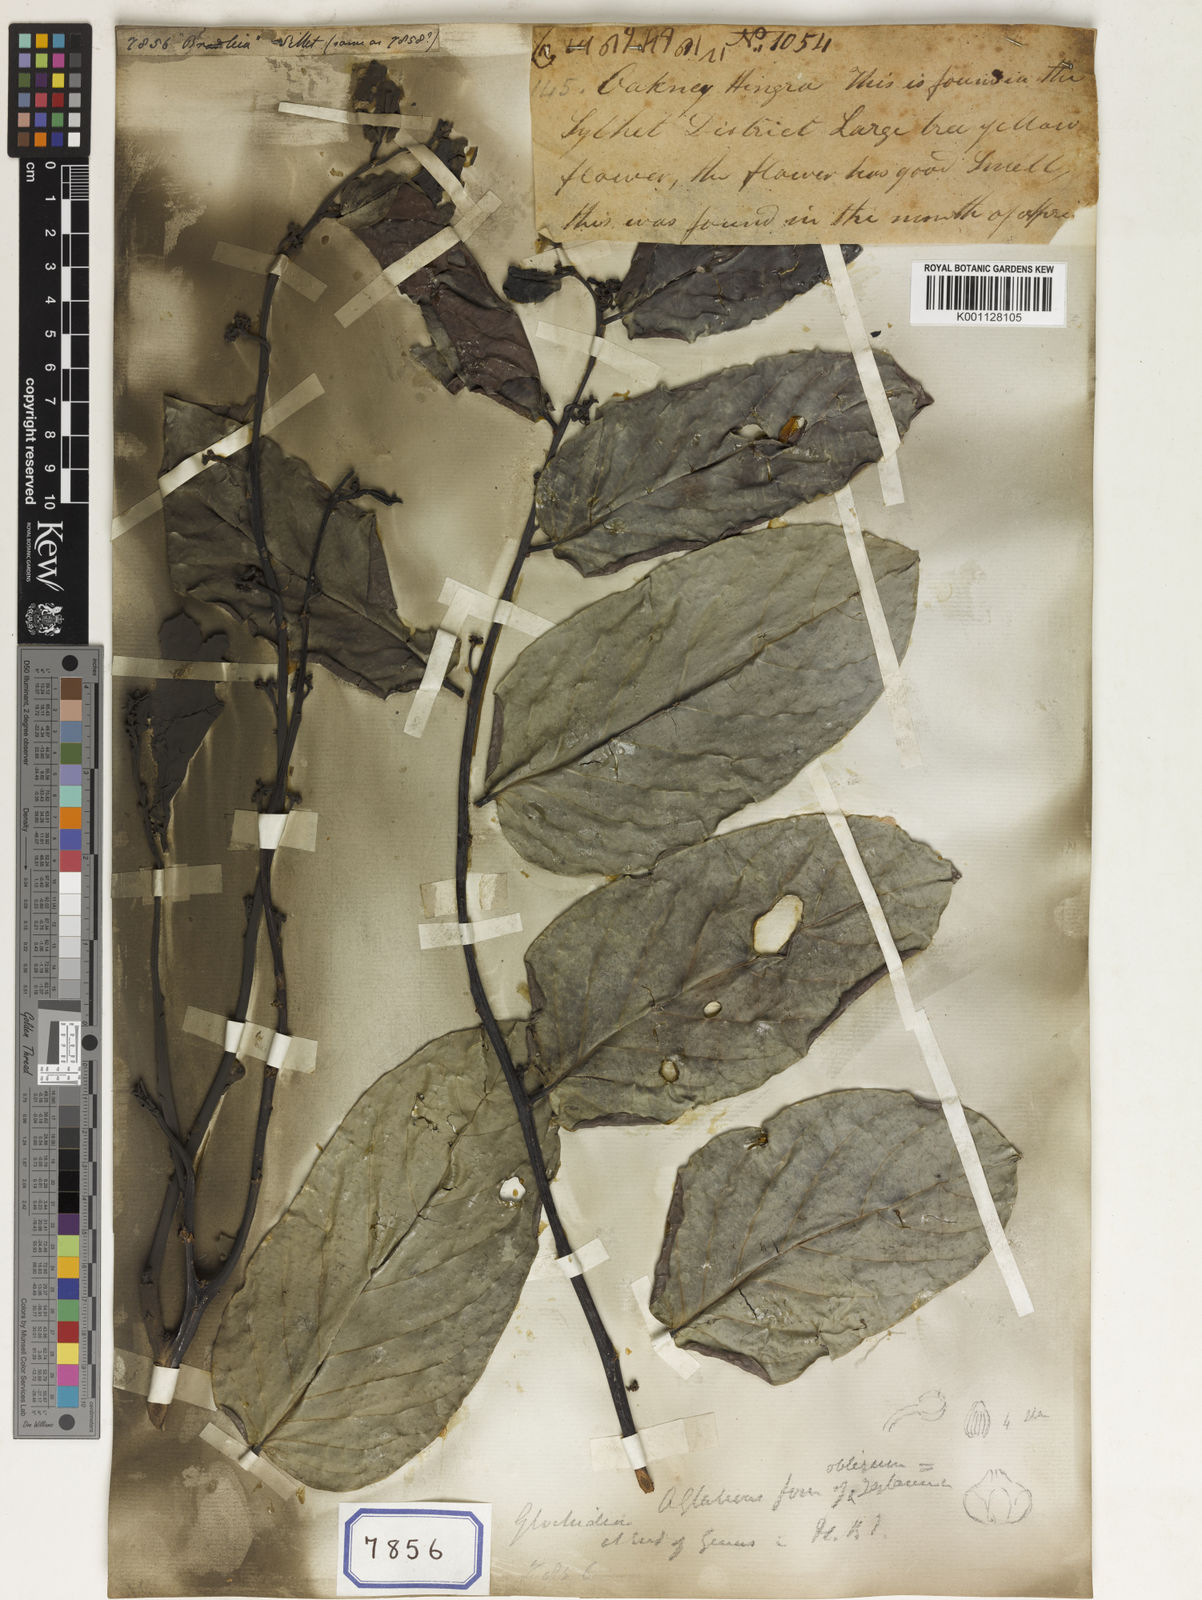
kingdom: Plantae
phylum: Tracheophyta
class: Magnoliopsida
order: Malpighiales
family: Euphorbiaceae
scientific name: Euphorbiaceae
